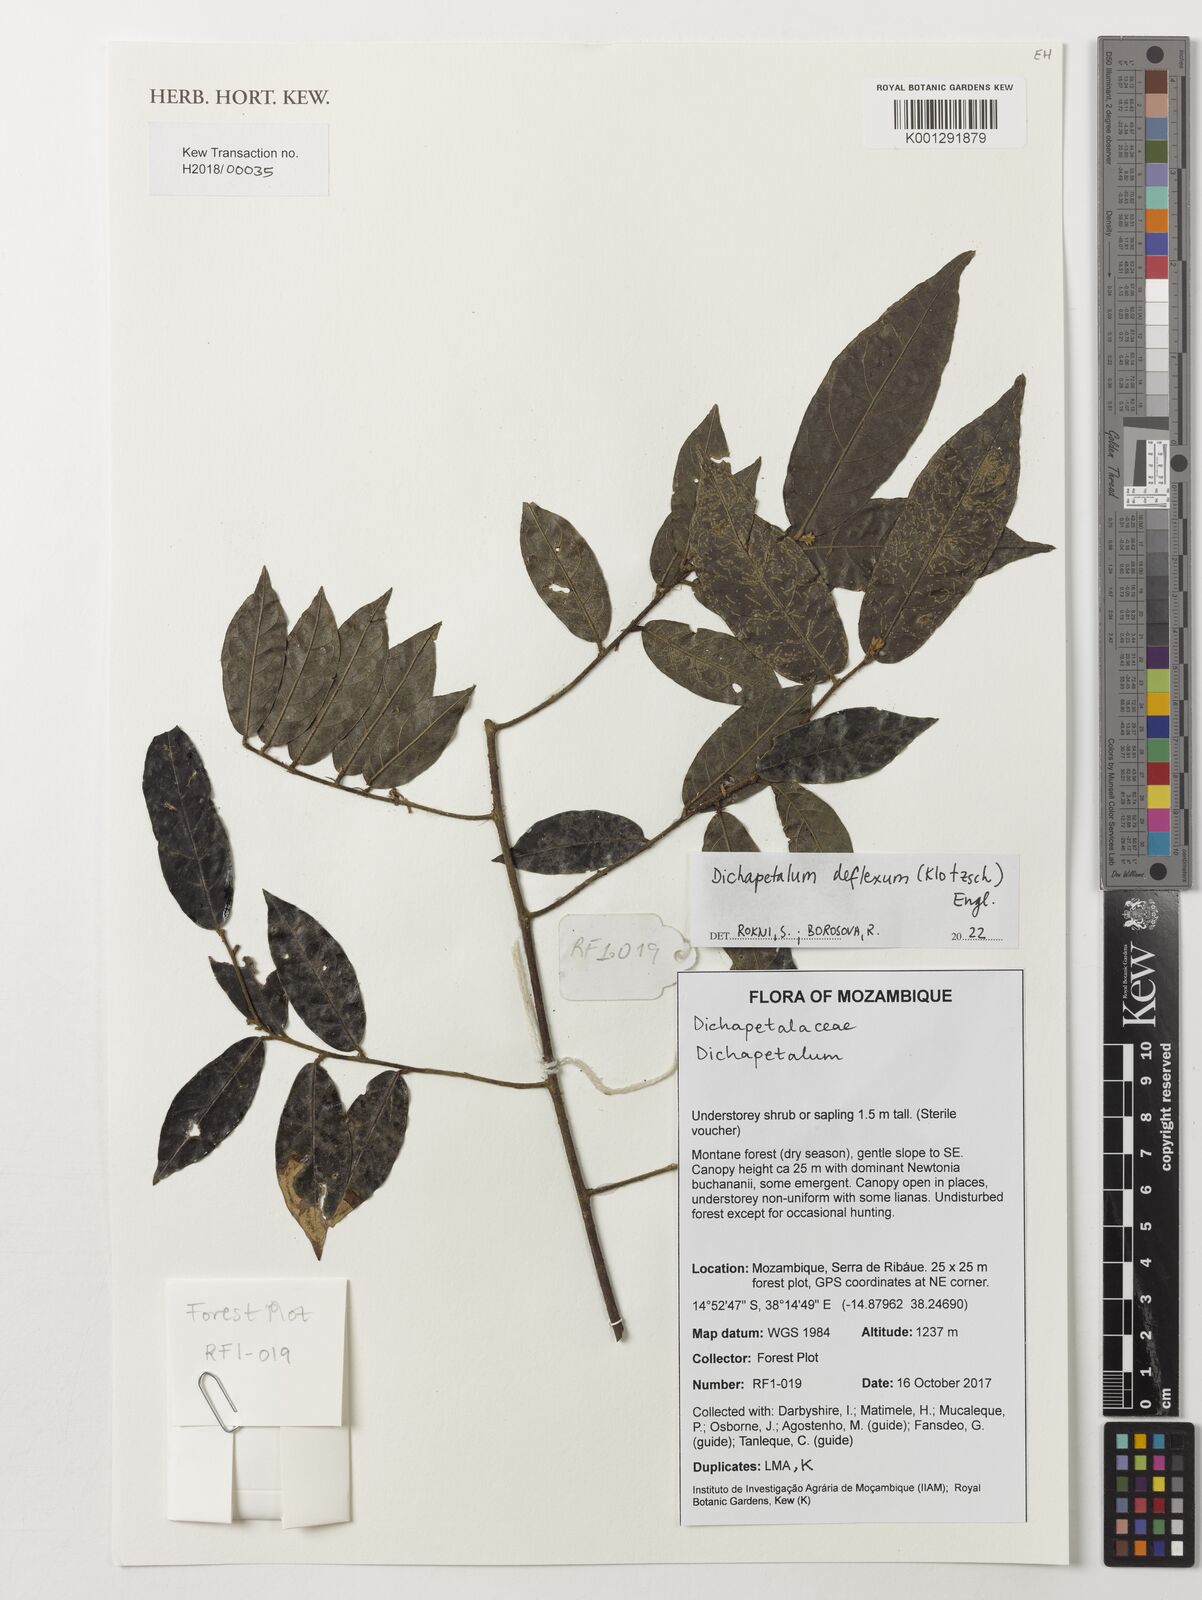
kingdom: Plantae
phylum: Tracheophyta
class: Magnoliopsida
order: Malpighiales
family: Dichapetalaceae
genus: Dichapetalum
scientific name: Dichapetalum deflexum
